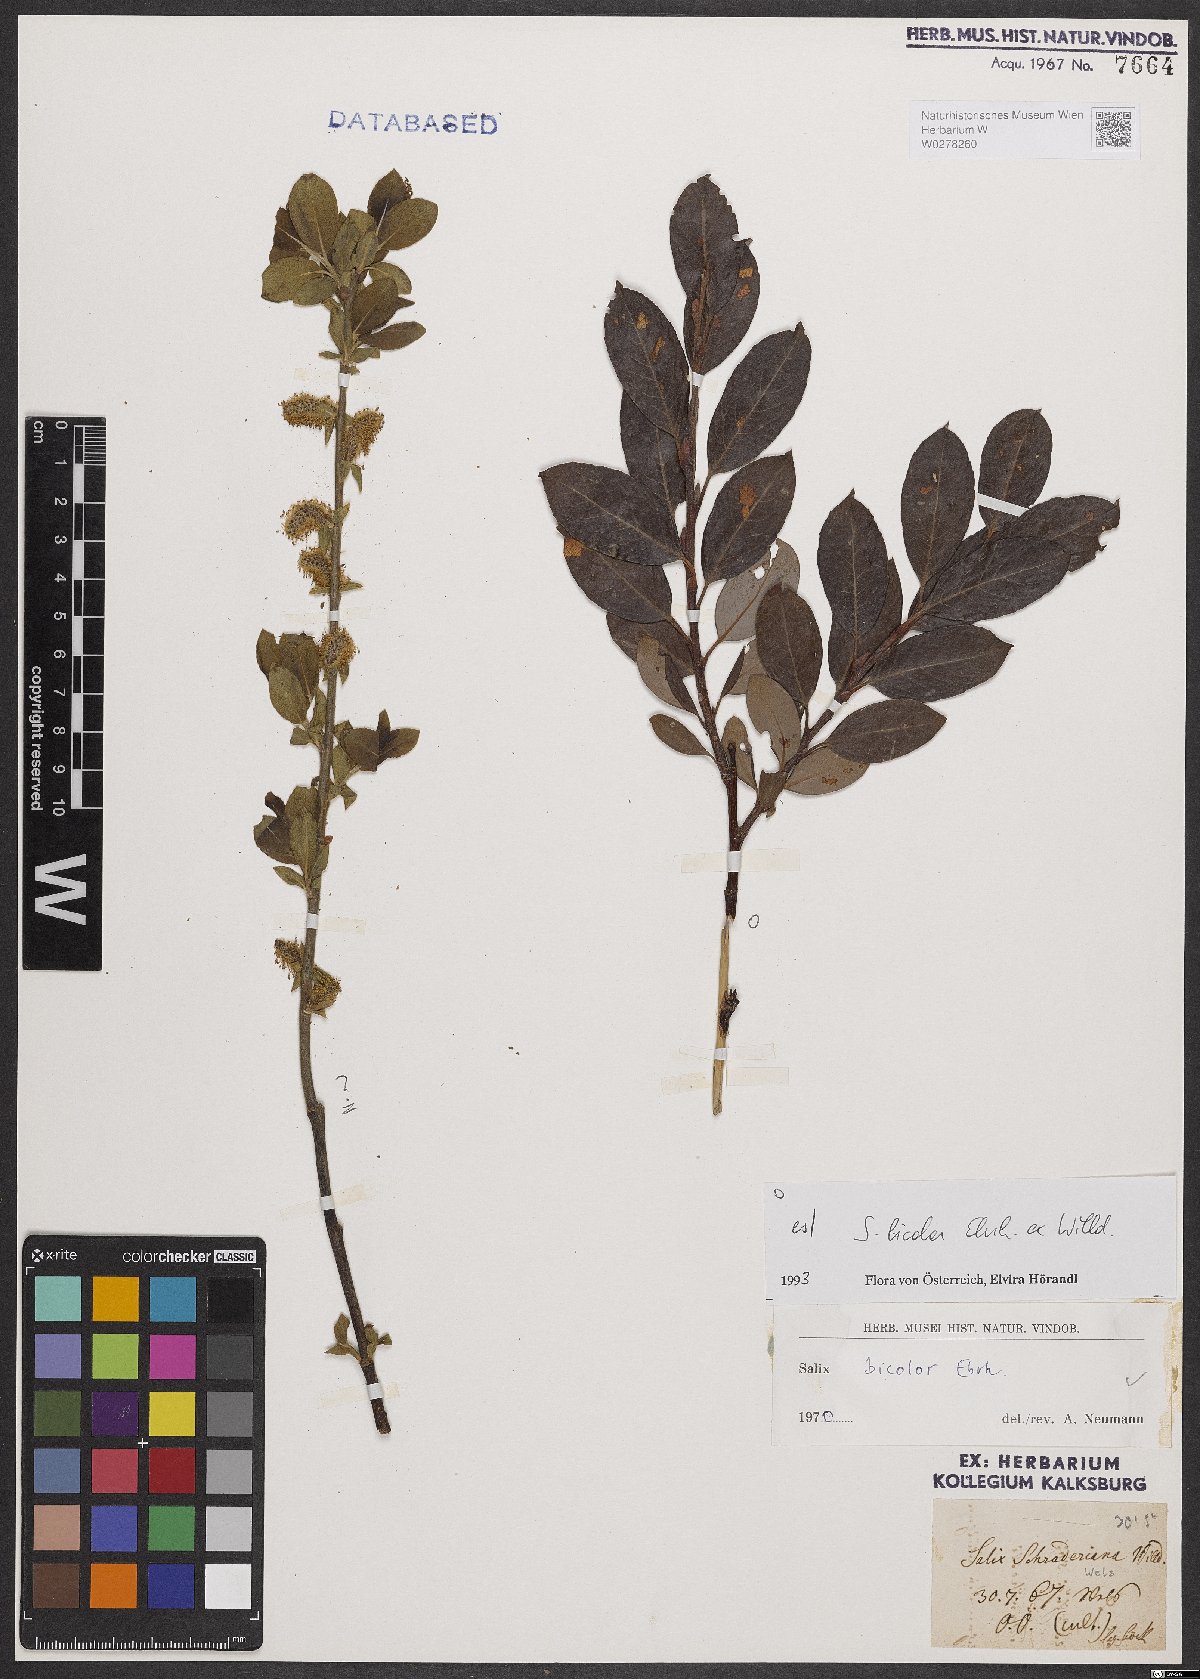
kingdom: Plantae
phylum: Tracheophyta
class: Magnoliopsida
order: Malpighiales
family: Salicaceae
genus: Salix
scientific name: Salix bicolor
